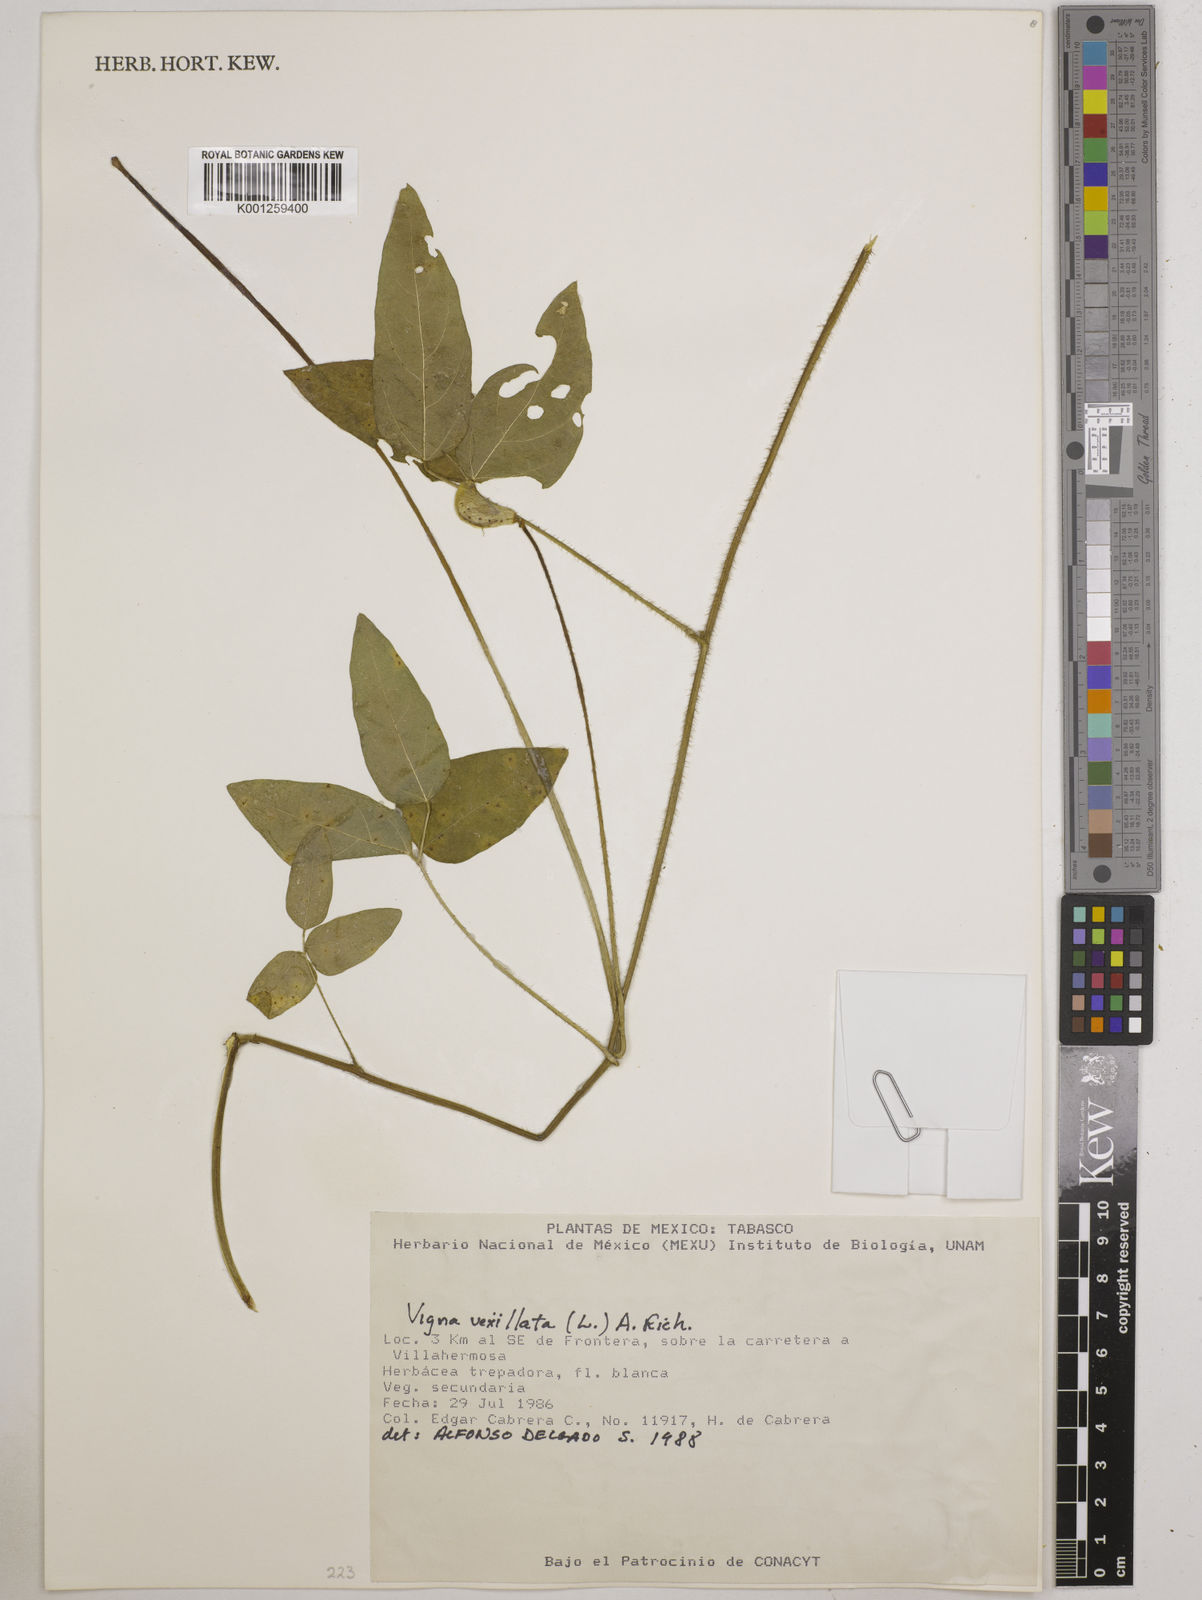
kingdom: Plantae
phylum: Tracheophyta
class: Magnoliopsida
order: Fabales
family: Fabaceae
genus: Vigna
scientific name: Vigna vexillata
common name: Zombi pea
